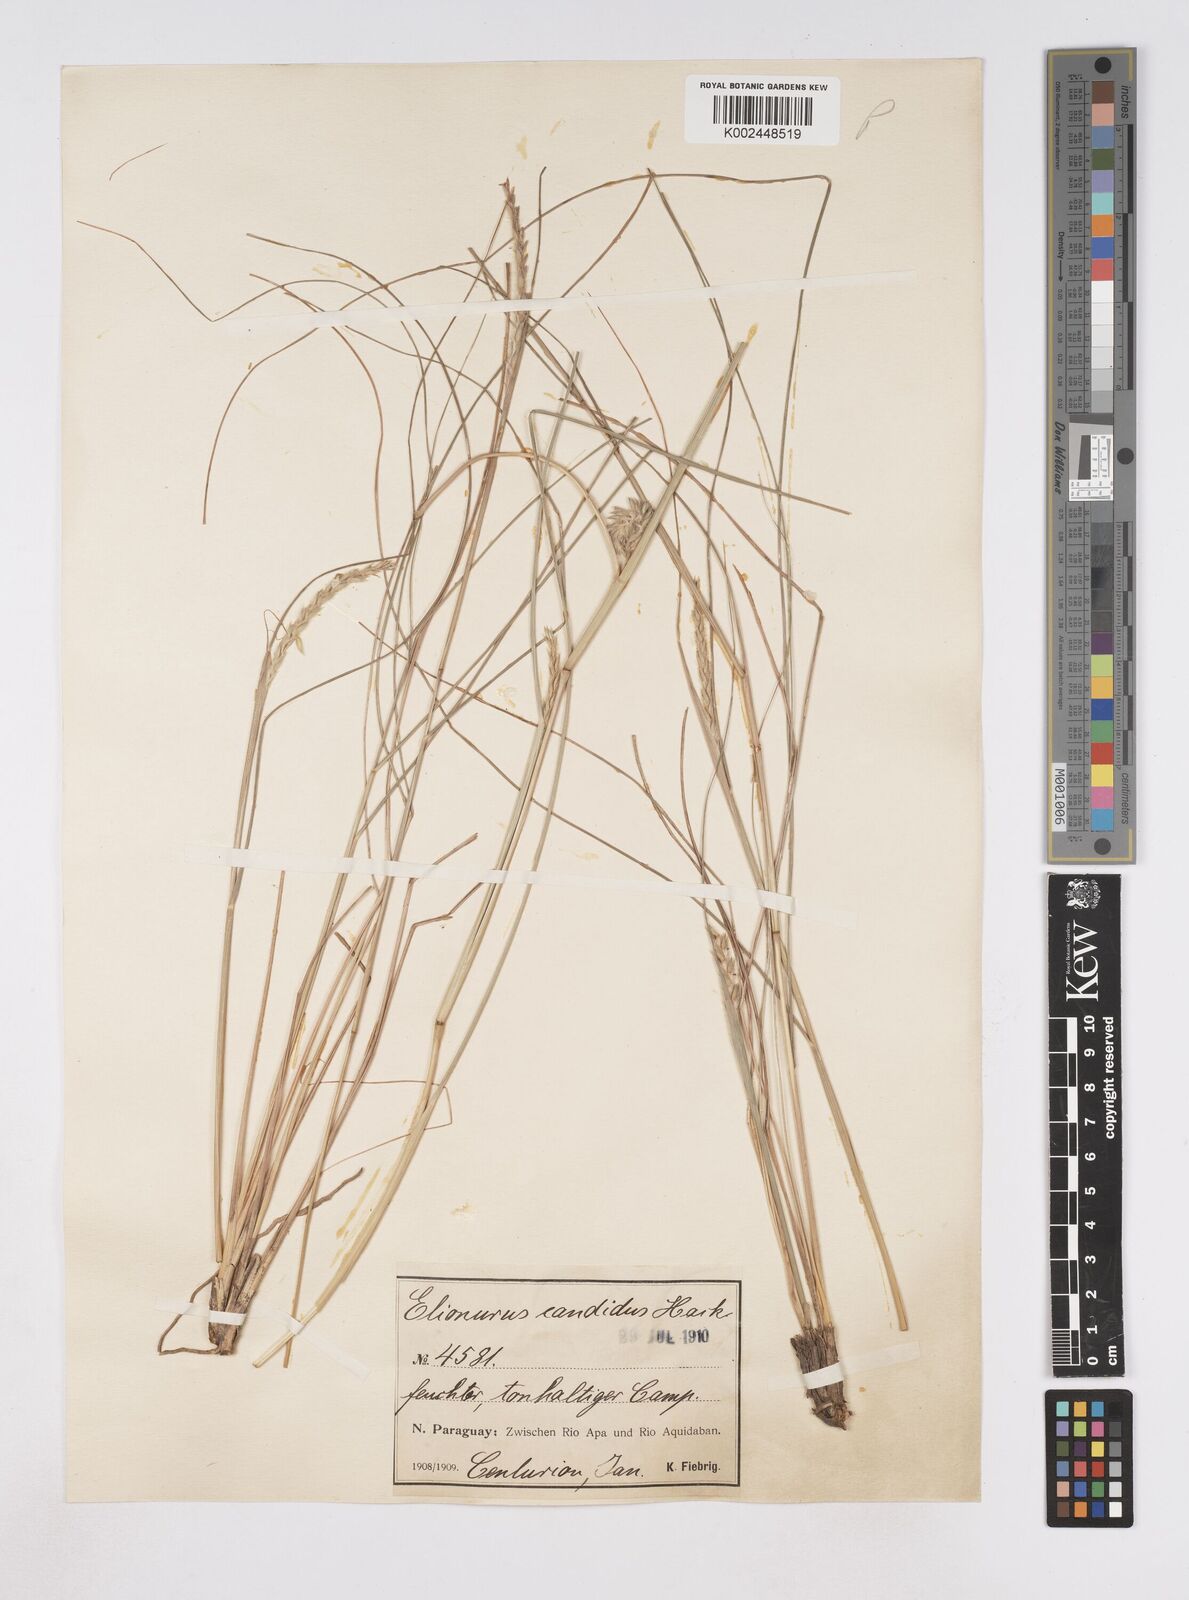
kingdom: Plantae
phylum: Tracheophyta
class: Liliopsida
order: Poales
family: Poaceae
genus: Elionurus
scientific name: Elionurus muticus
